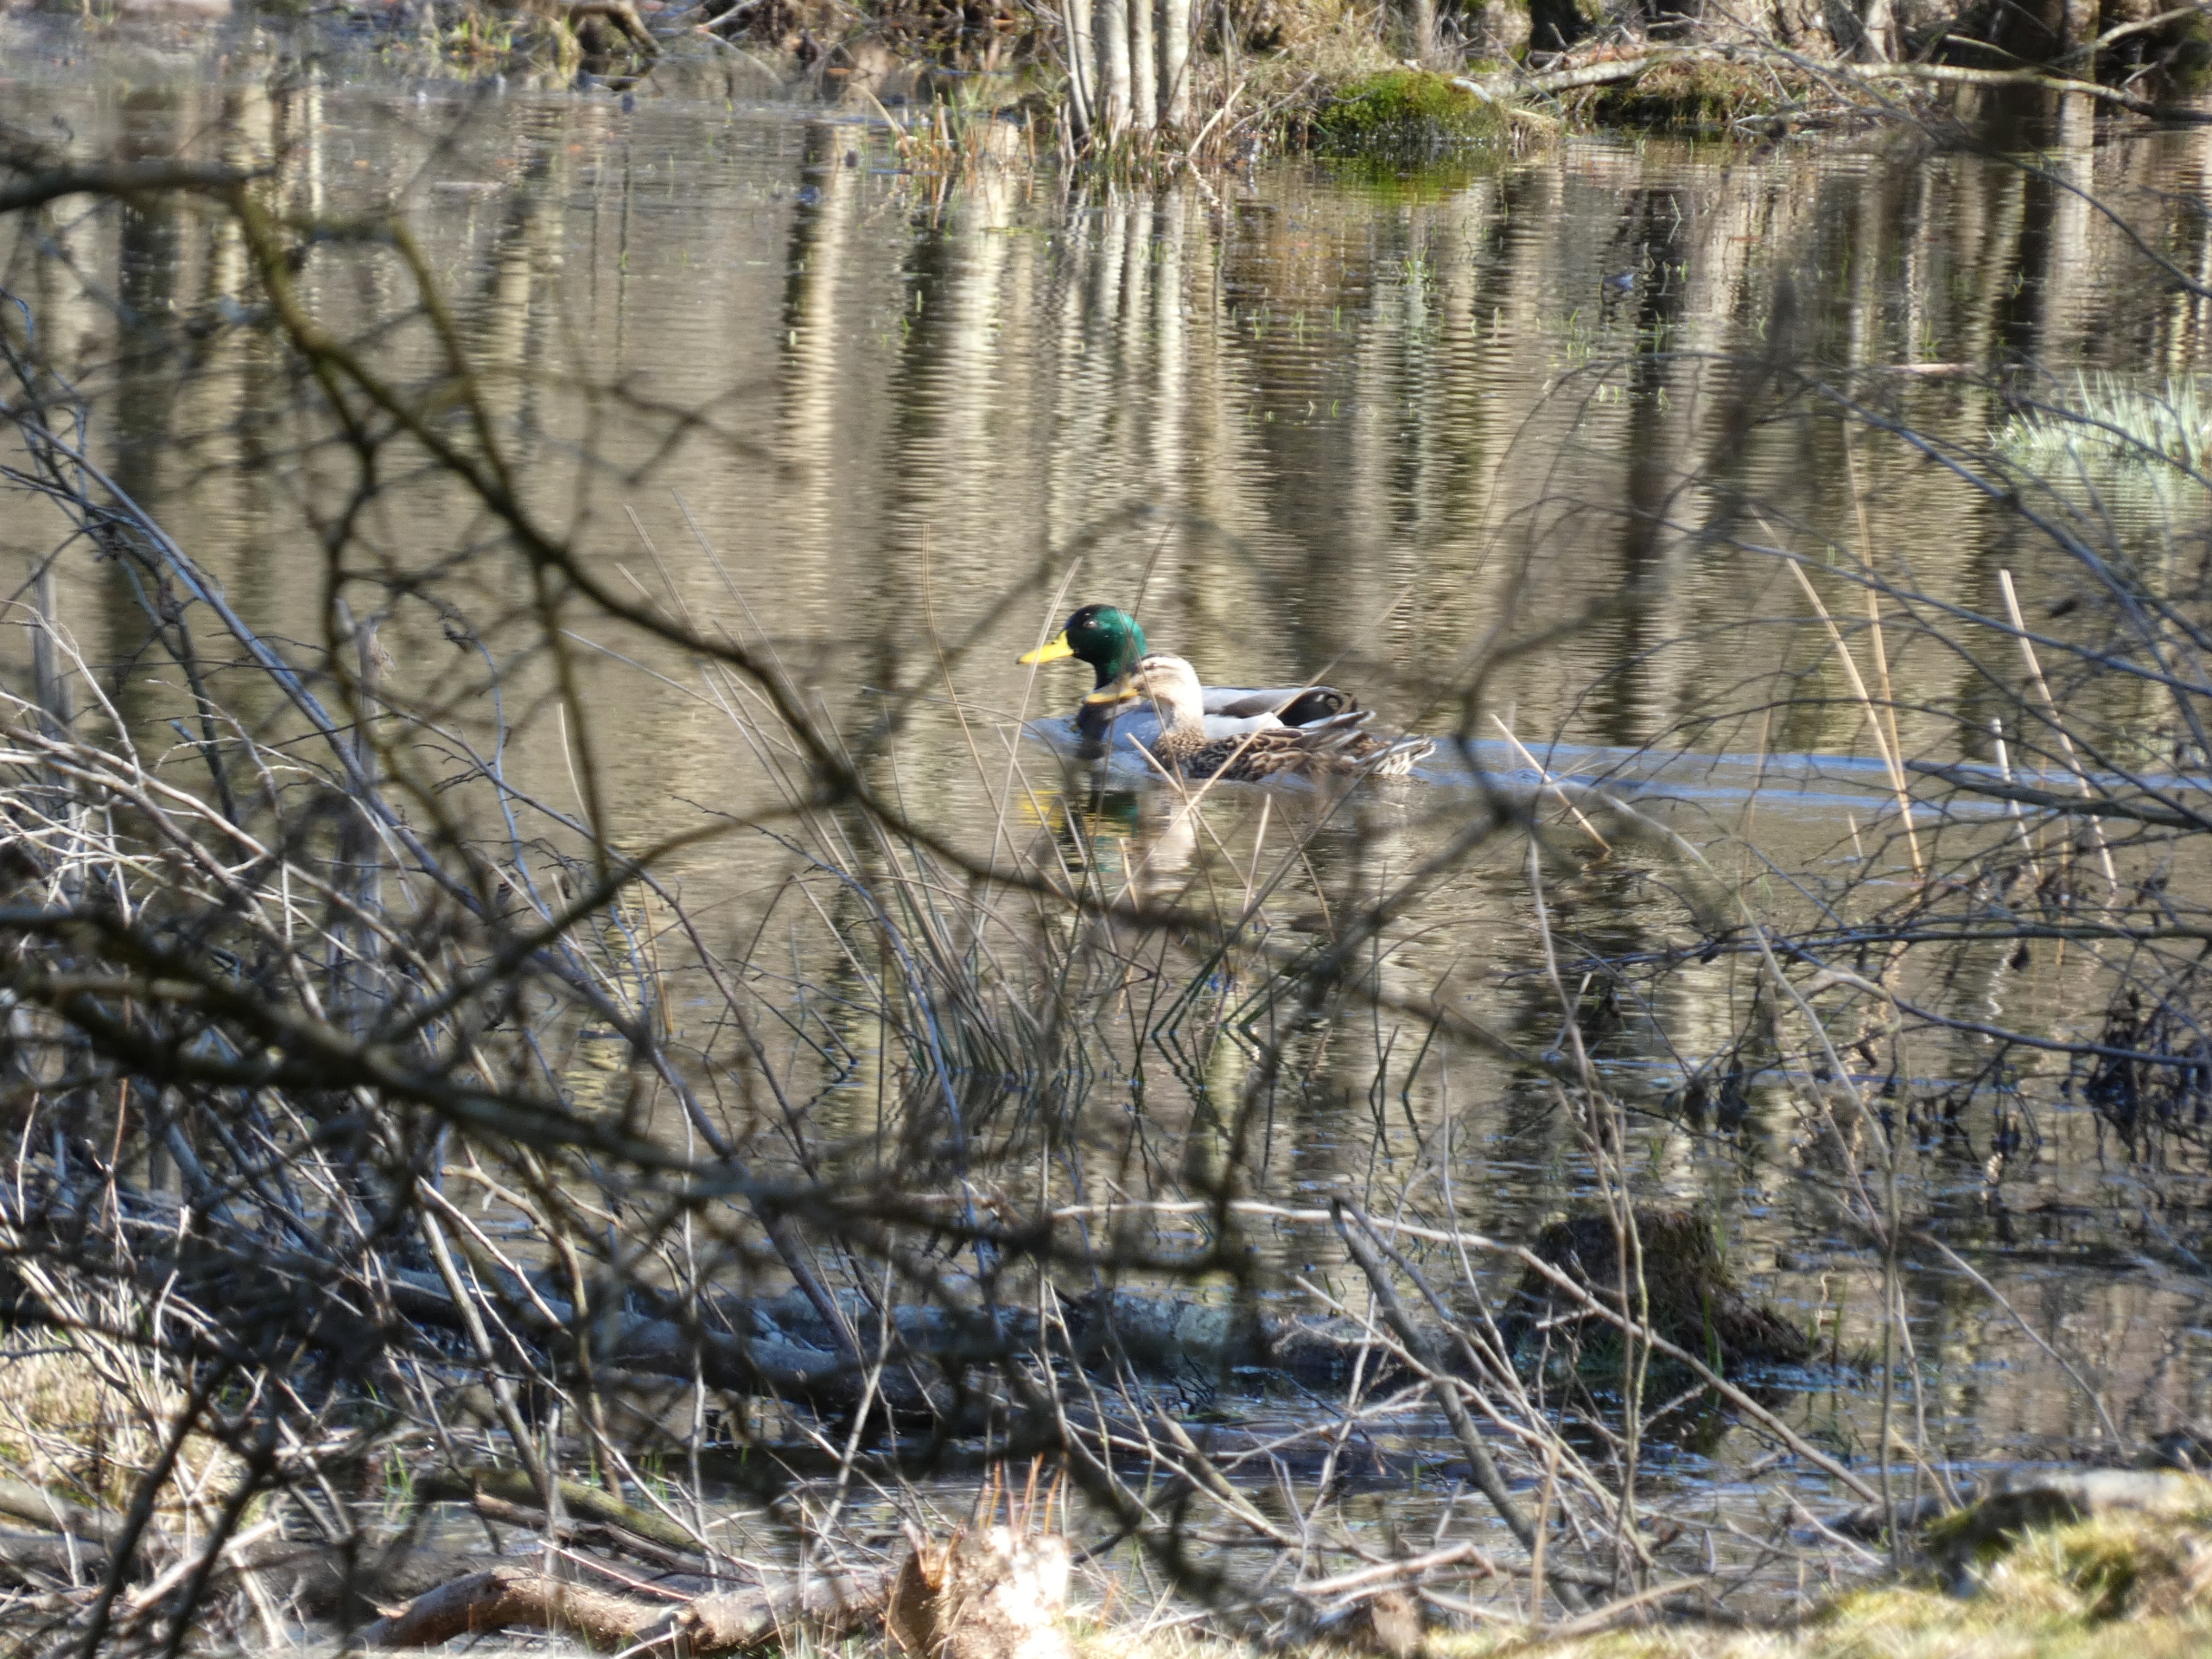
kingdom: Animalia
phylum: Chordata
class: Aves
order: Anseriformes
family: Anatidae
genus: Anas
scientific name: Anas platyrhynchos
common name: Gråand
